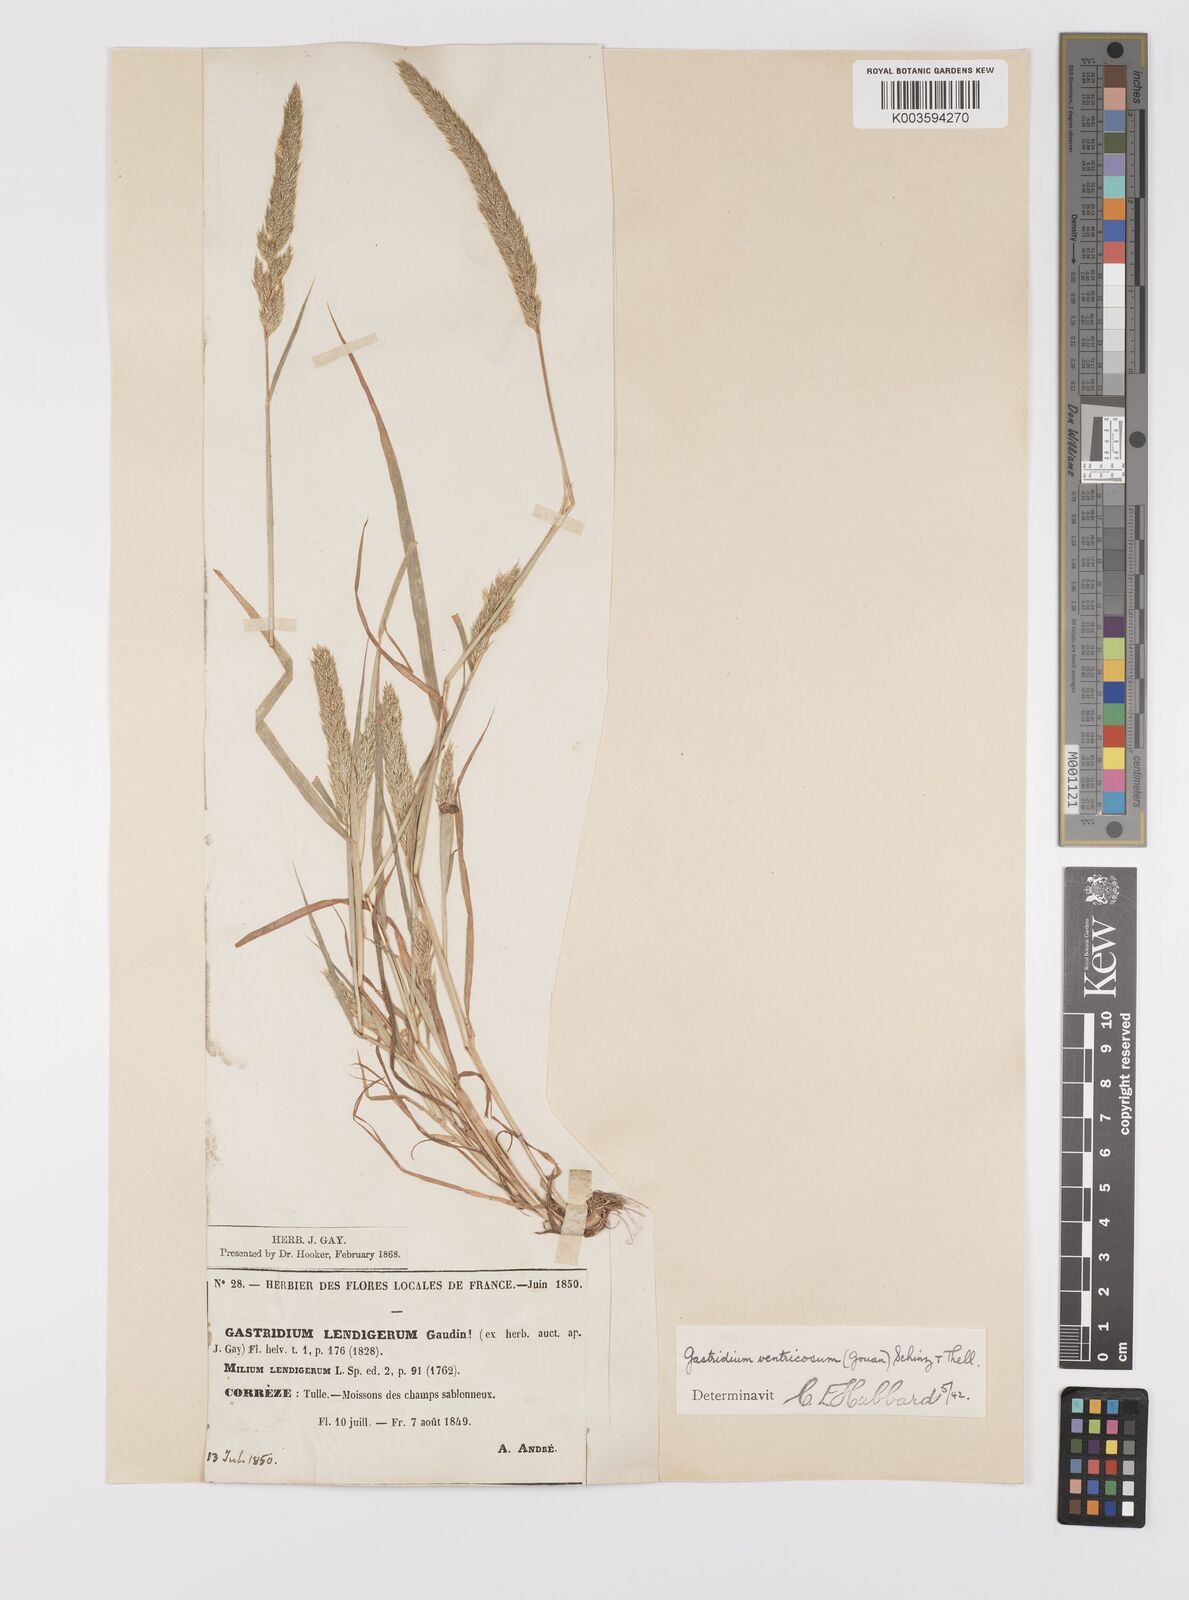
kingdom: Plantae
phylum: Tracheophyta
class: Liliopsida
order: Poales
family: Poaceae
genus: Gastridium
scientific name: Gastridium ventricosum
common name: Nit-grass
